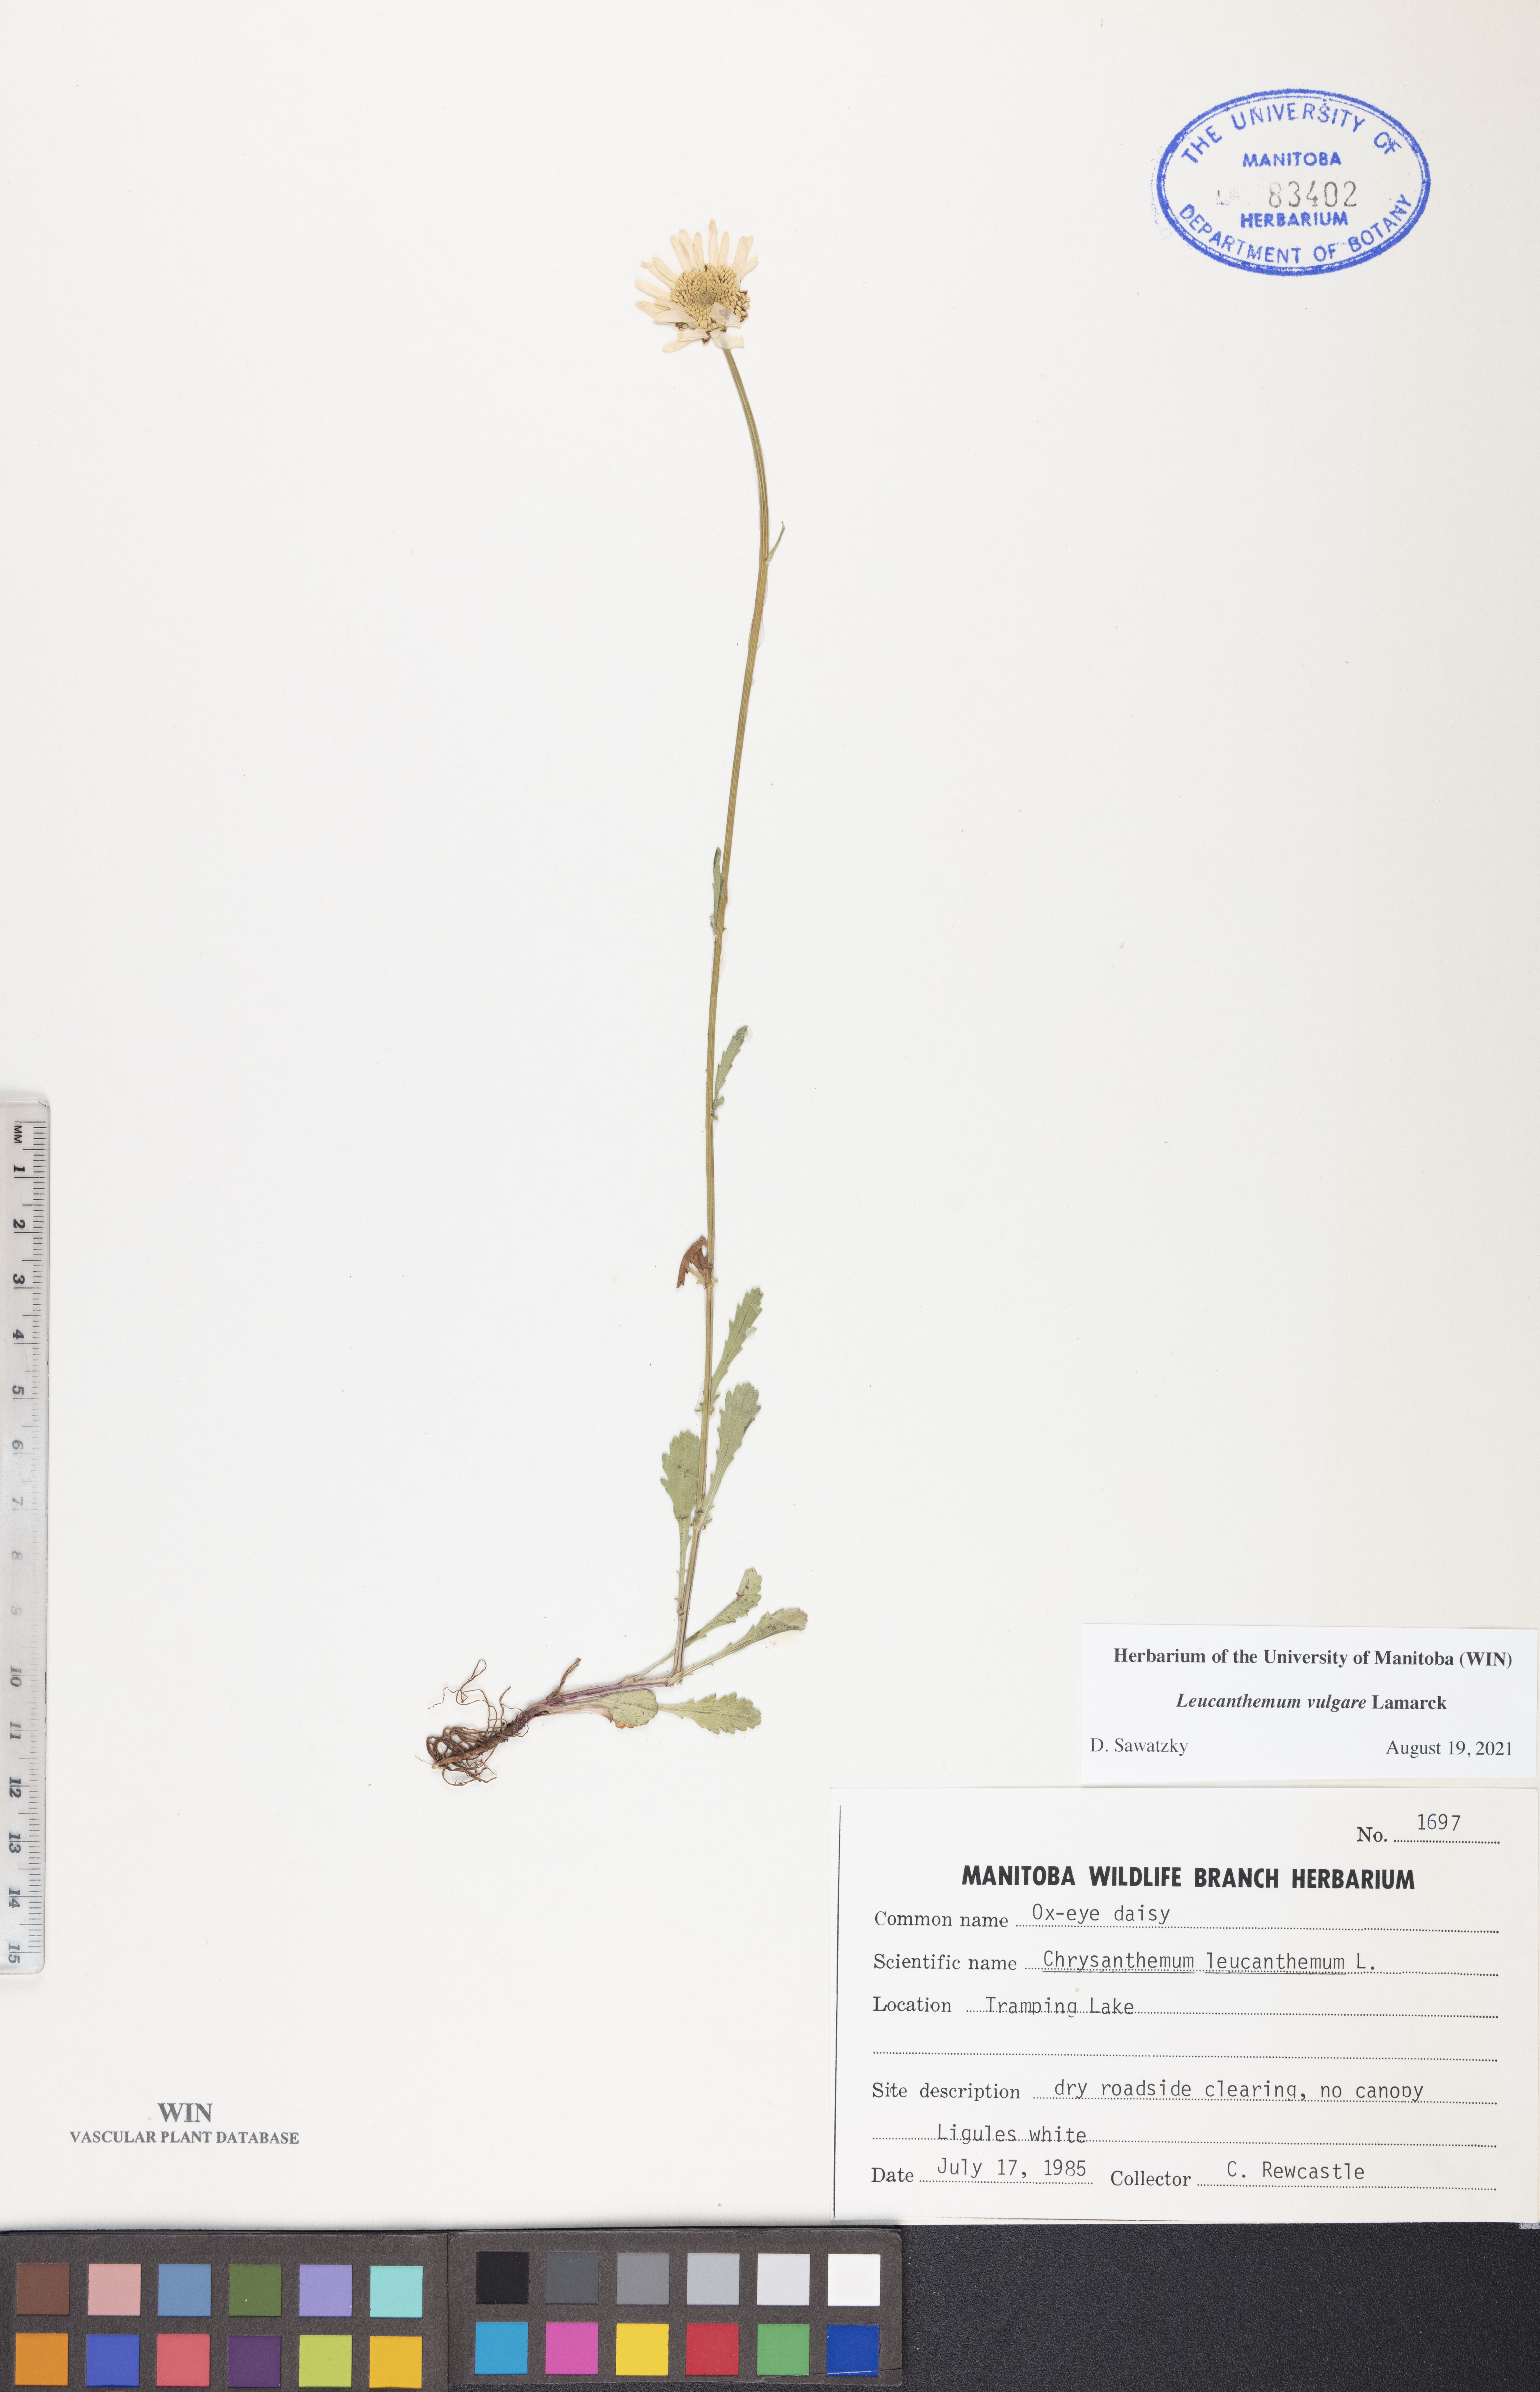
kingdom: Plantae
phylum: Tracheophyta
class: Magnoliopsida
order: Asterales
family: Asteraceae
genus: Leucanthemum
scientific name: Leucanthemum vulgare
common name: Oxeye daisy
